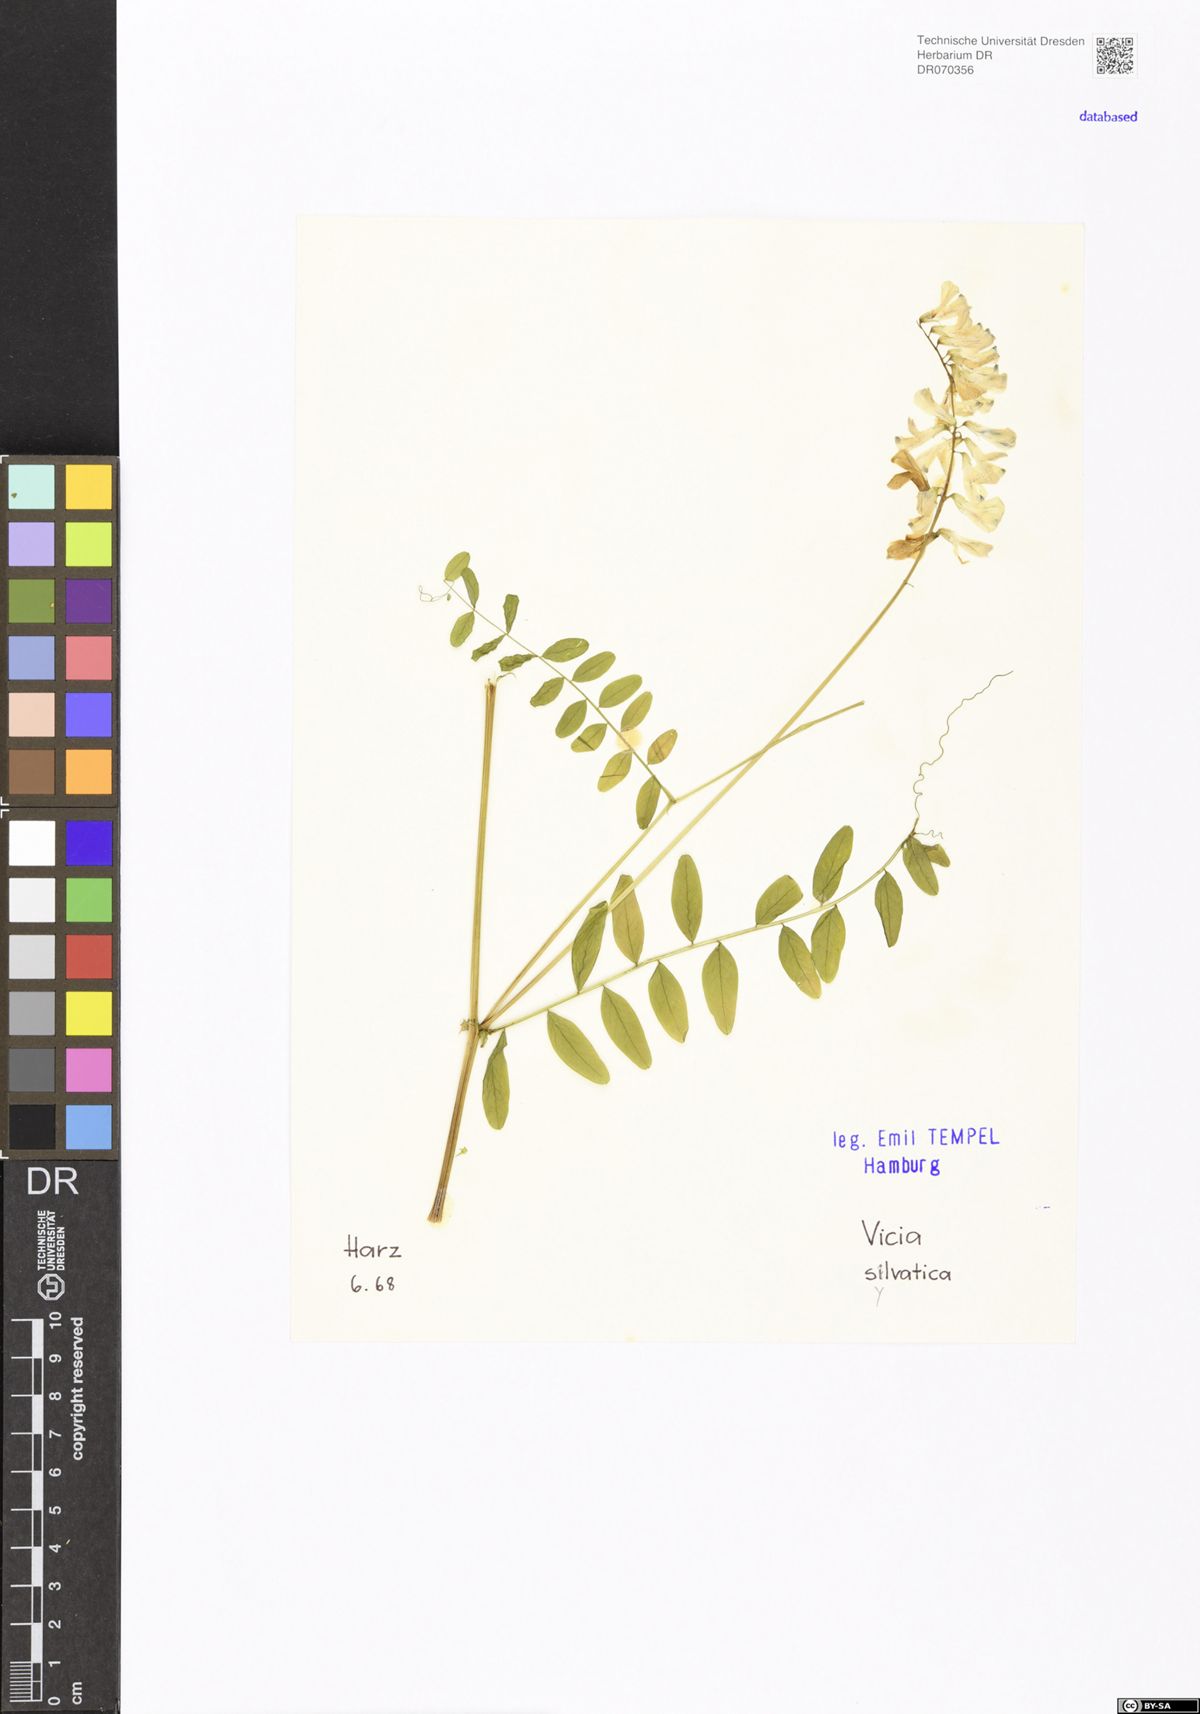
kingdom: Plantae
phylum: Tracheophyta
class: Magnoliopsida
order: Fabales
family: Fabaceae
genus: Vicia
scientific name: Vicia sylvatica
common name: Wood vetch
